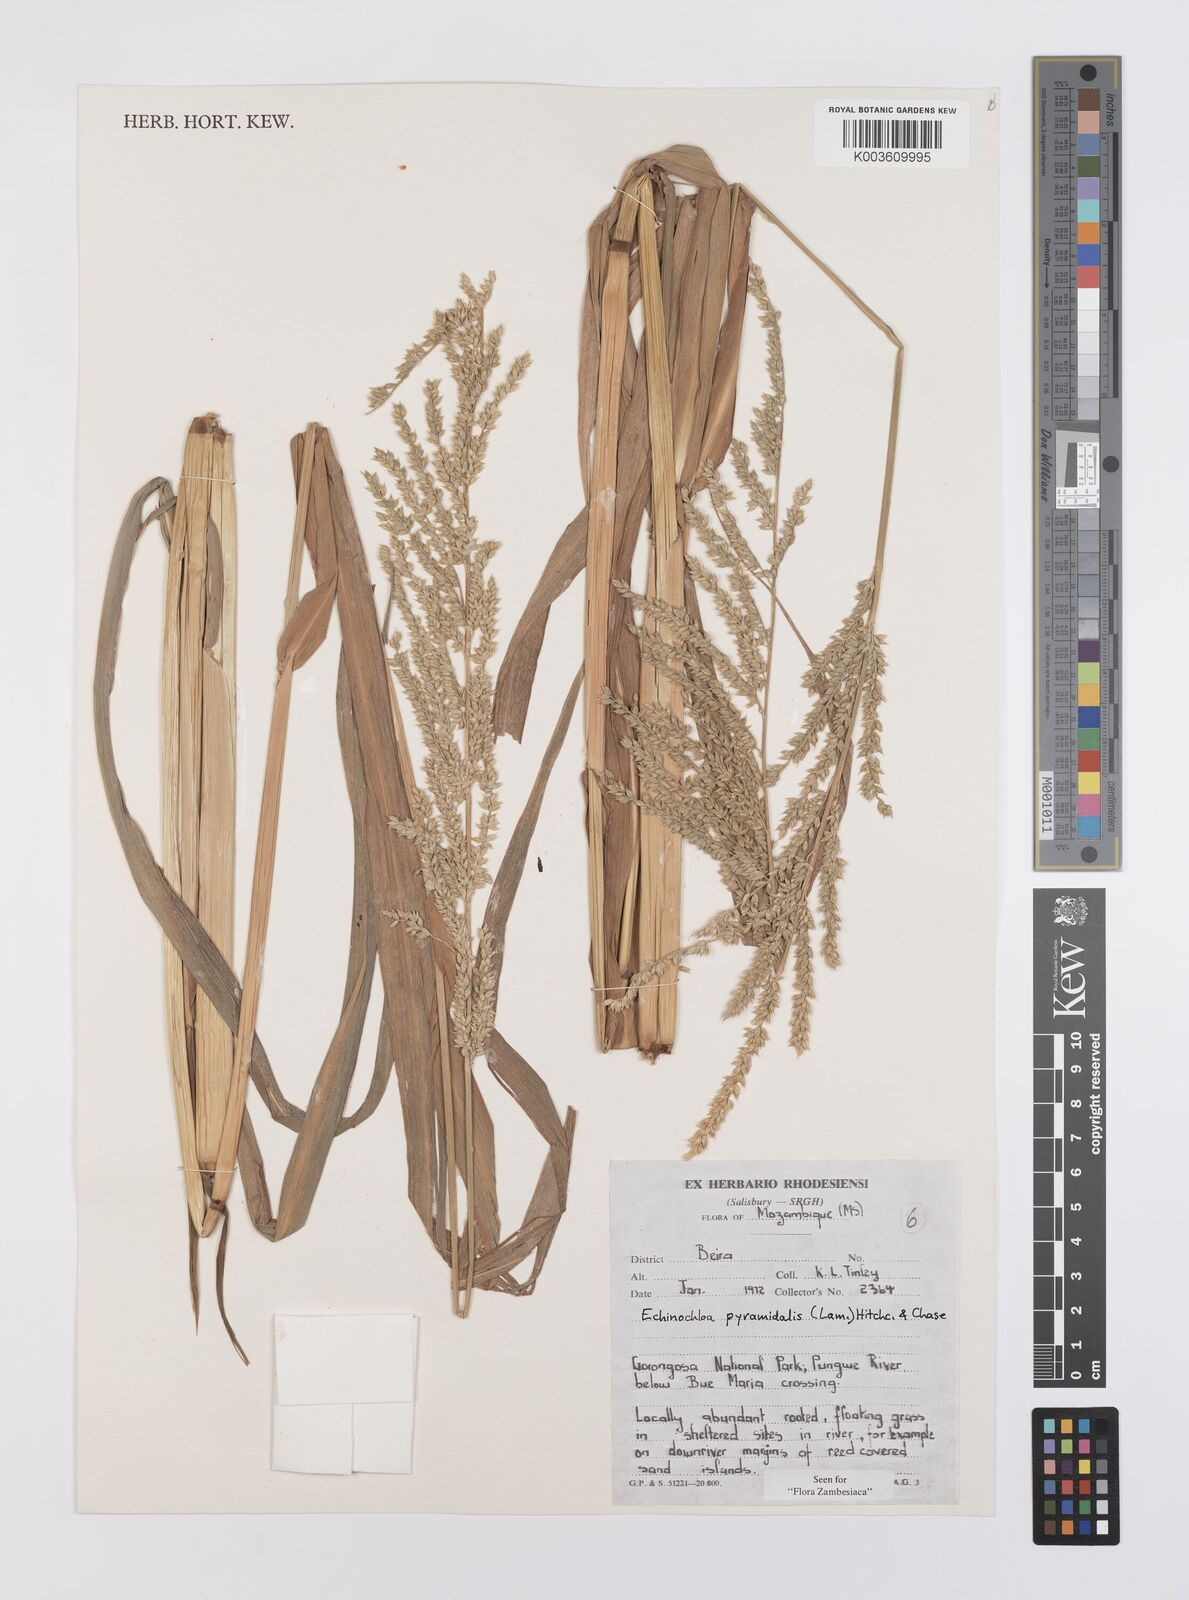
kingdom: Plantae
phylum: Tracheophyta
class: Liliopsida
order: Poales
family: Poaceae
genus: Echinochloa
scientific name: Echinochloa pyramidalis
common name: Antelope grass
